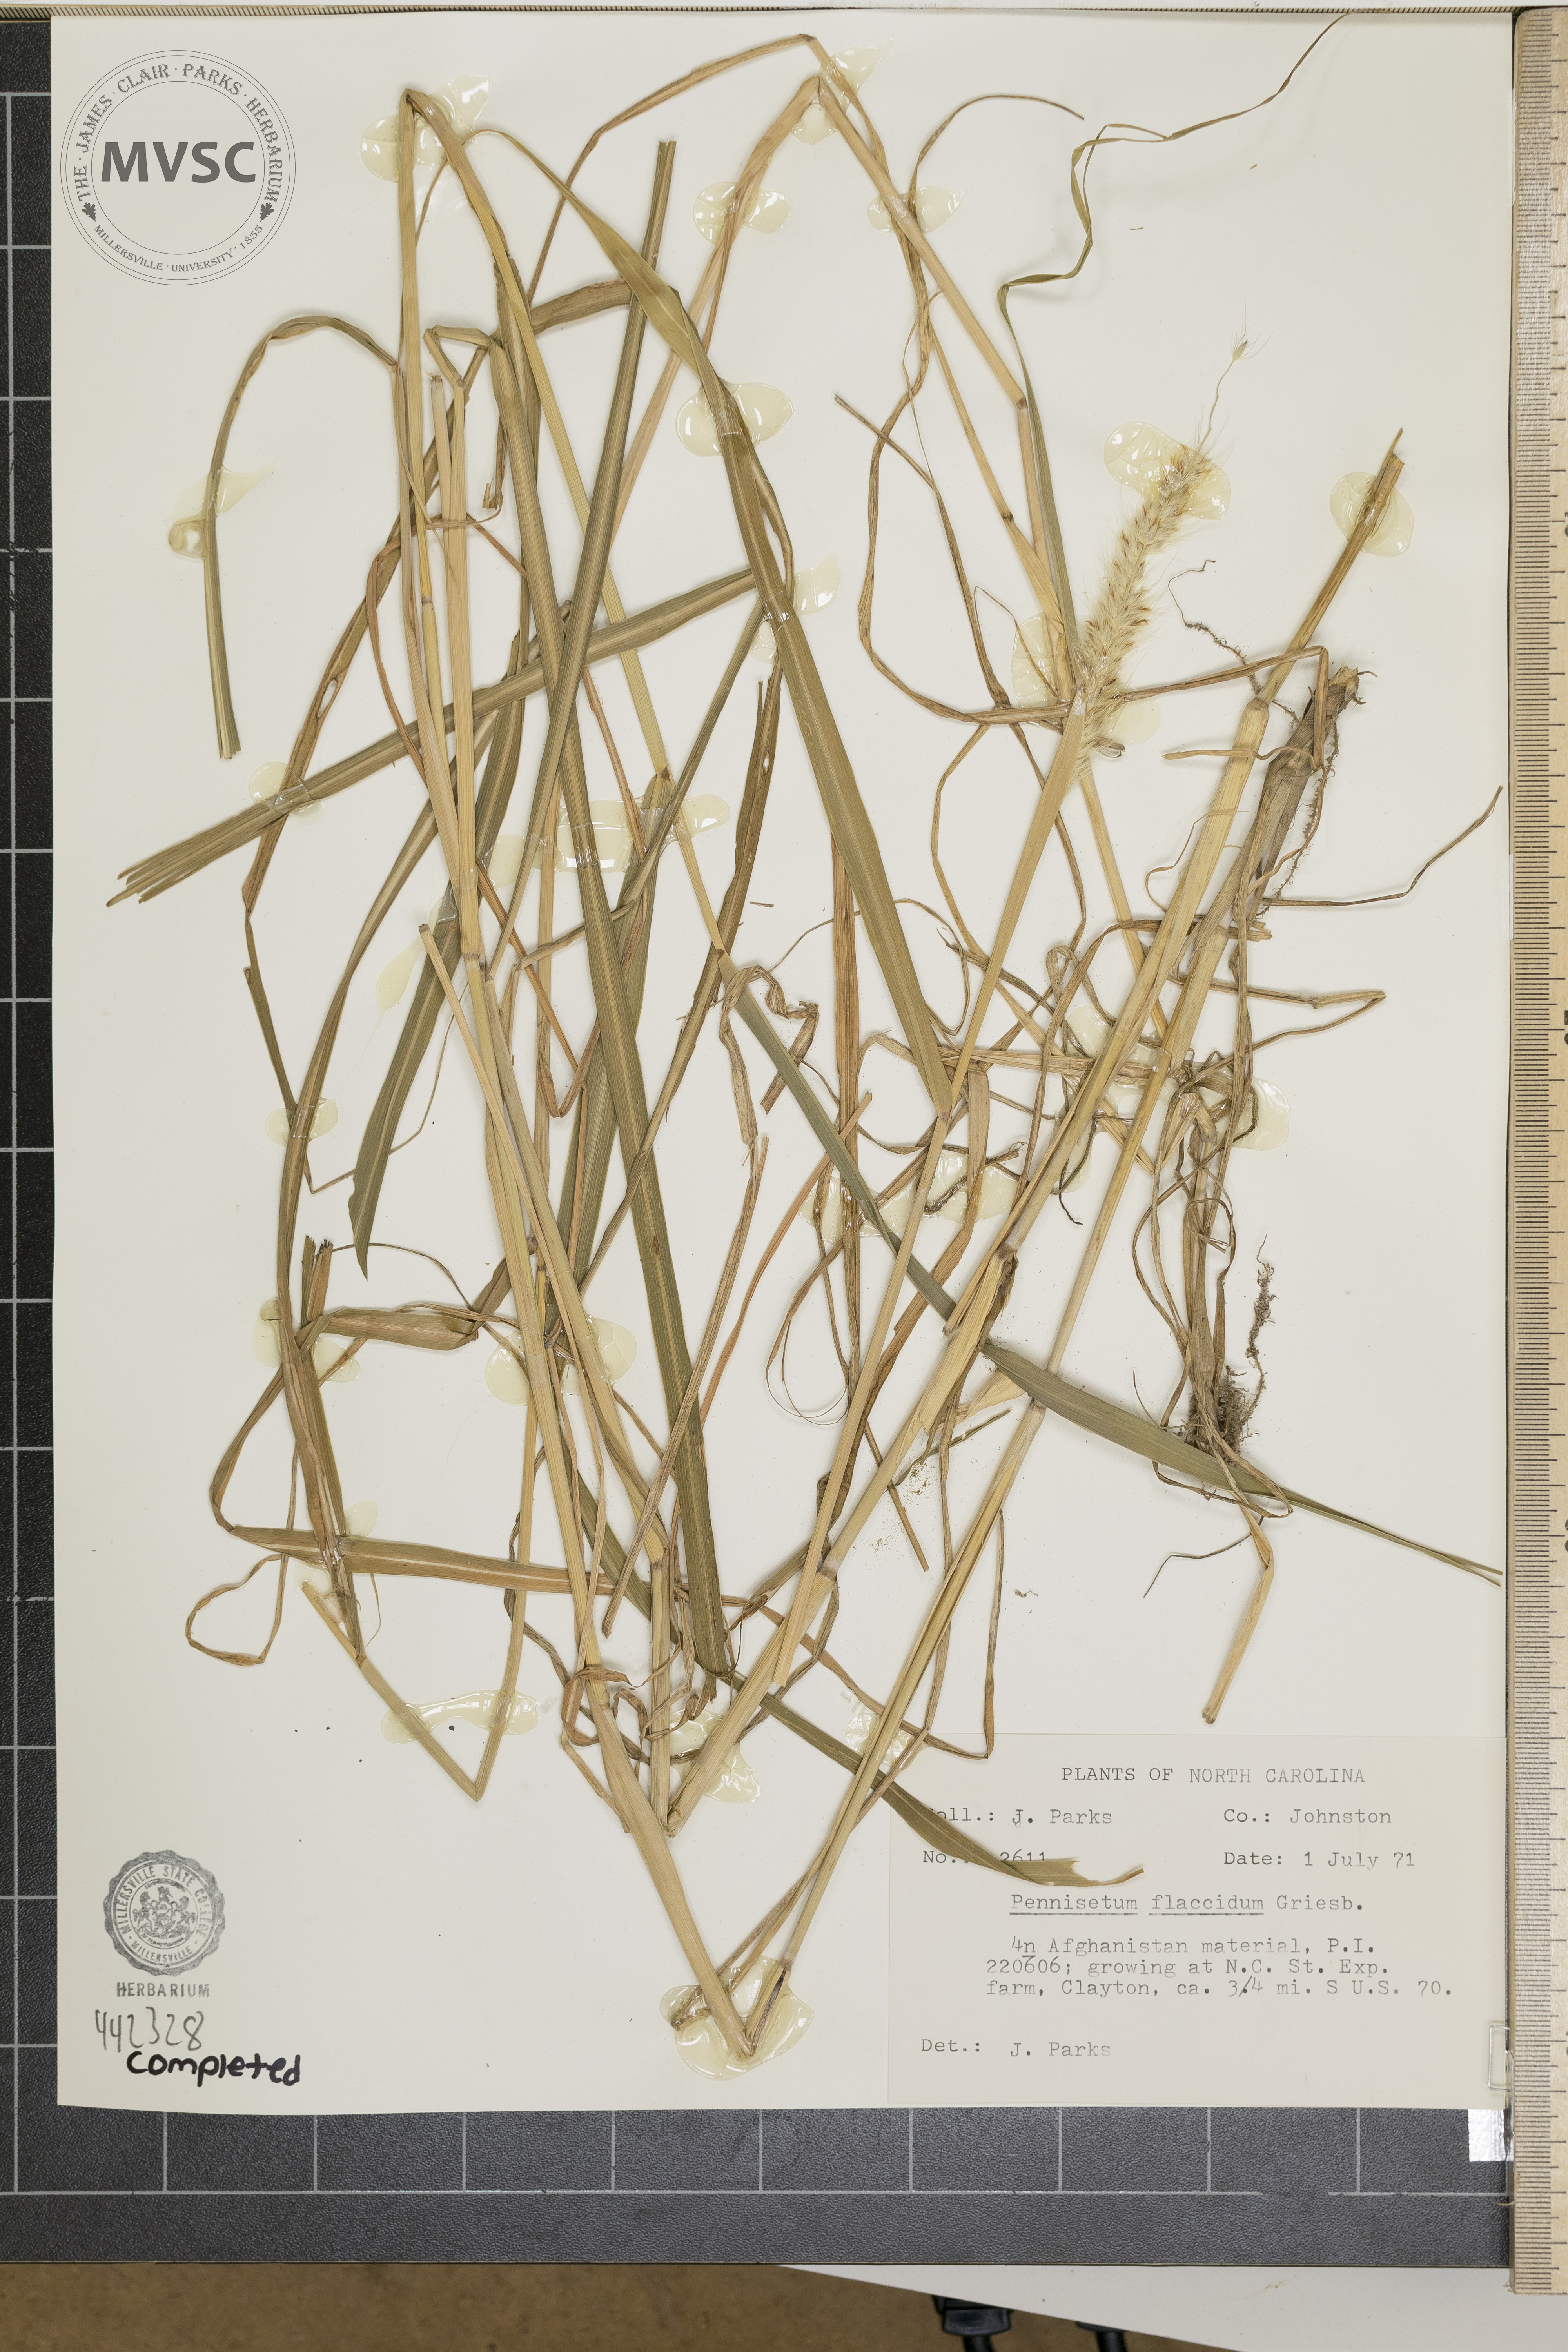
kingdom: Plantae
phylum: Tracheophyta
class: Liliopsida
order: Poales
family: Poaceae
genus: Cenchrus
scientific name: Cenchrus flaccidus
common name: Flaccid grass
